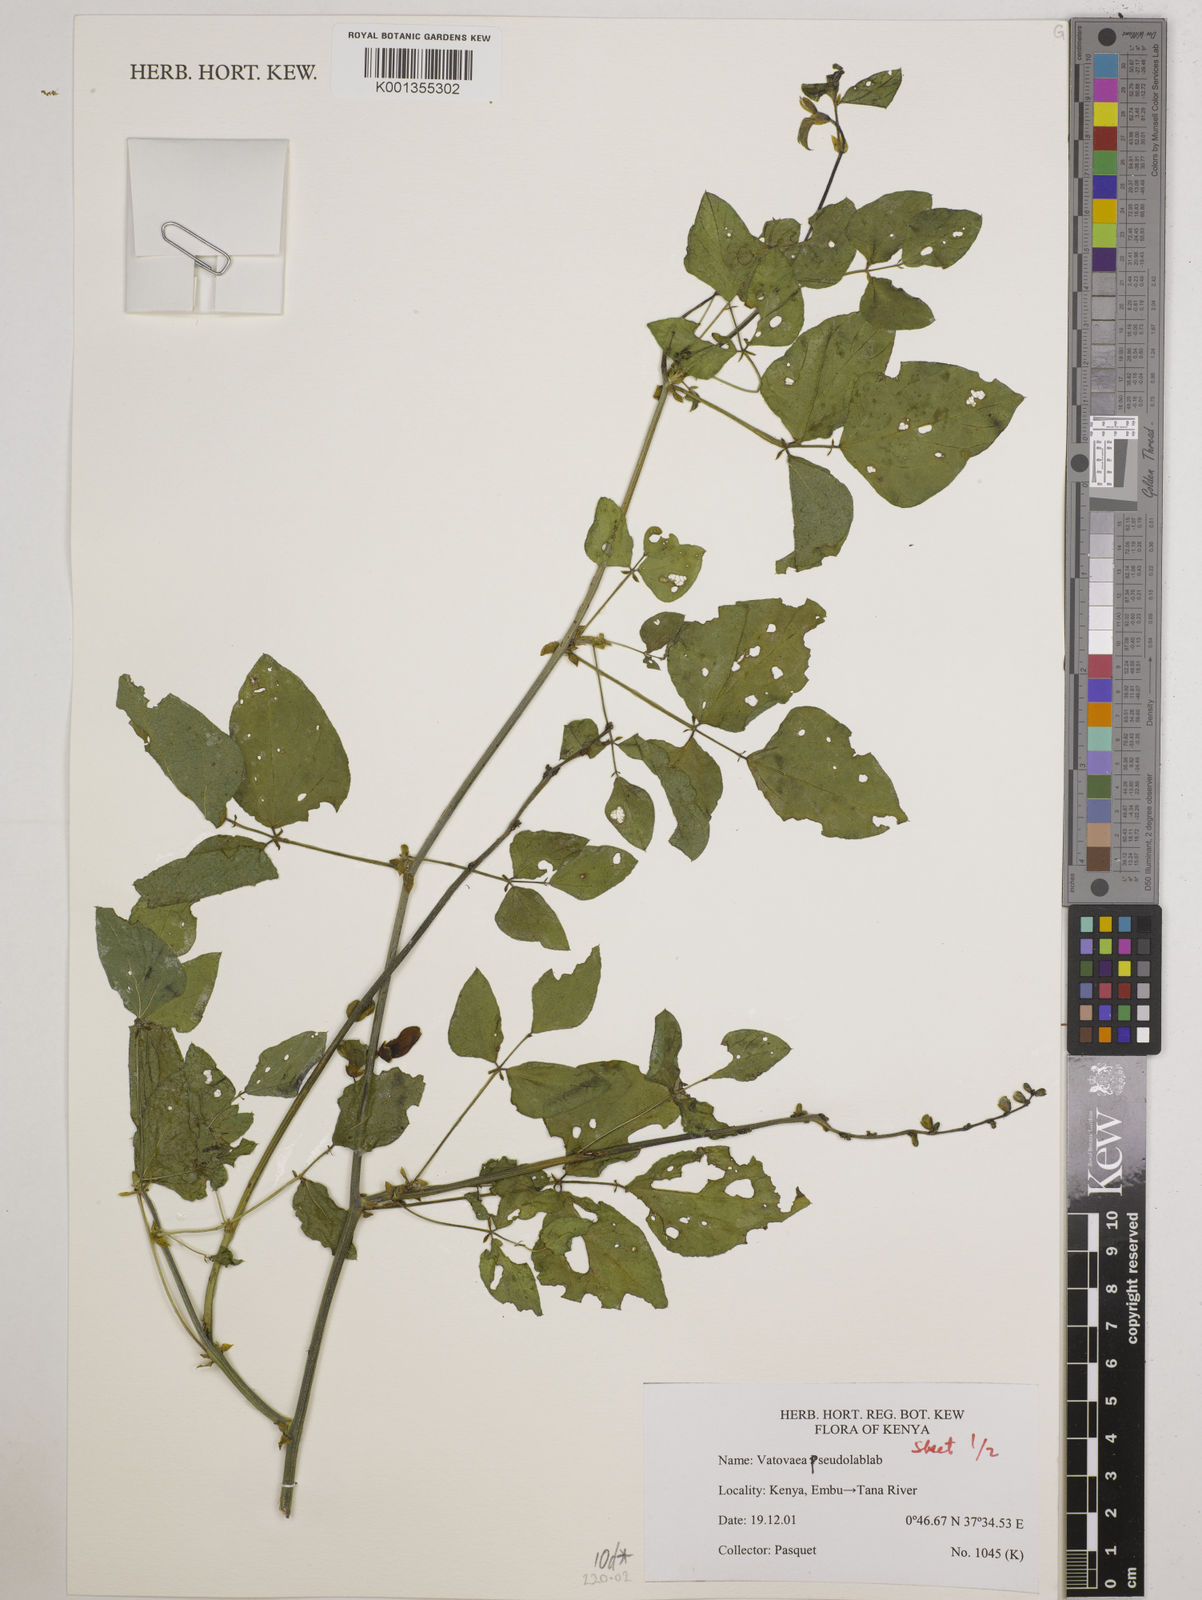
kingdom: Plantae
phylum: Tracheophyta
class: Magnoliopsida
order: Fabales
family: Fabaceae
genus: Vatovaea
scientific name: Vatovaea pseudolablab
